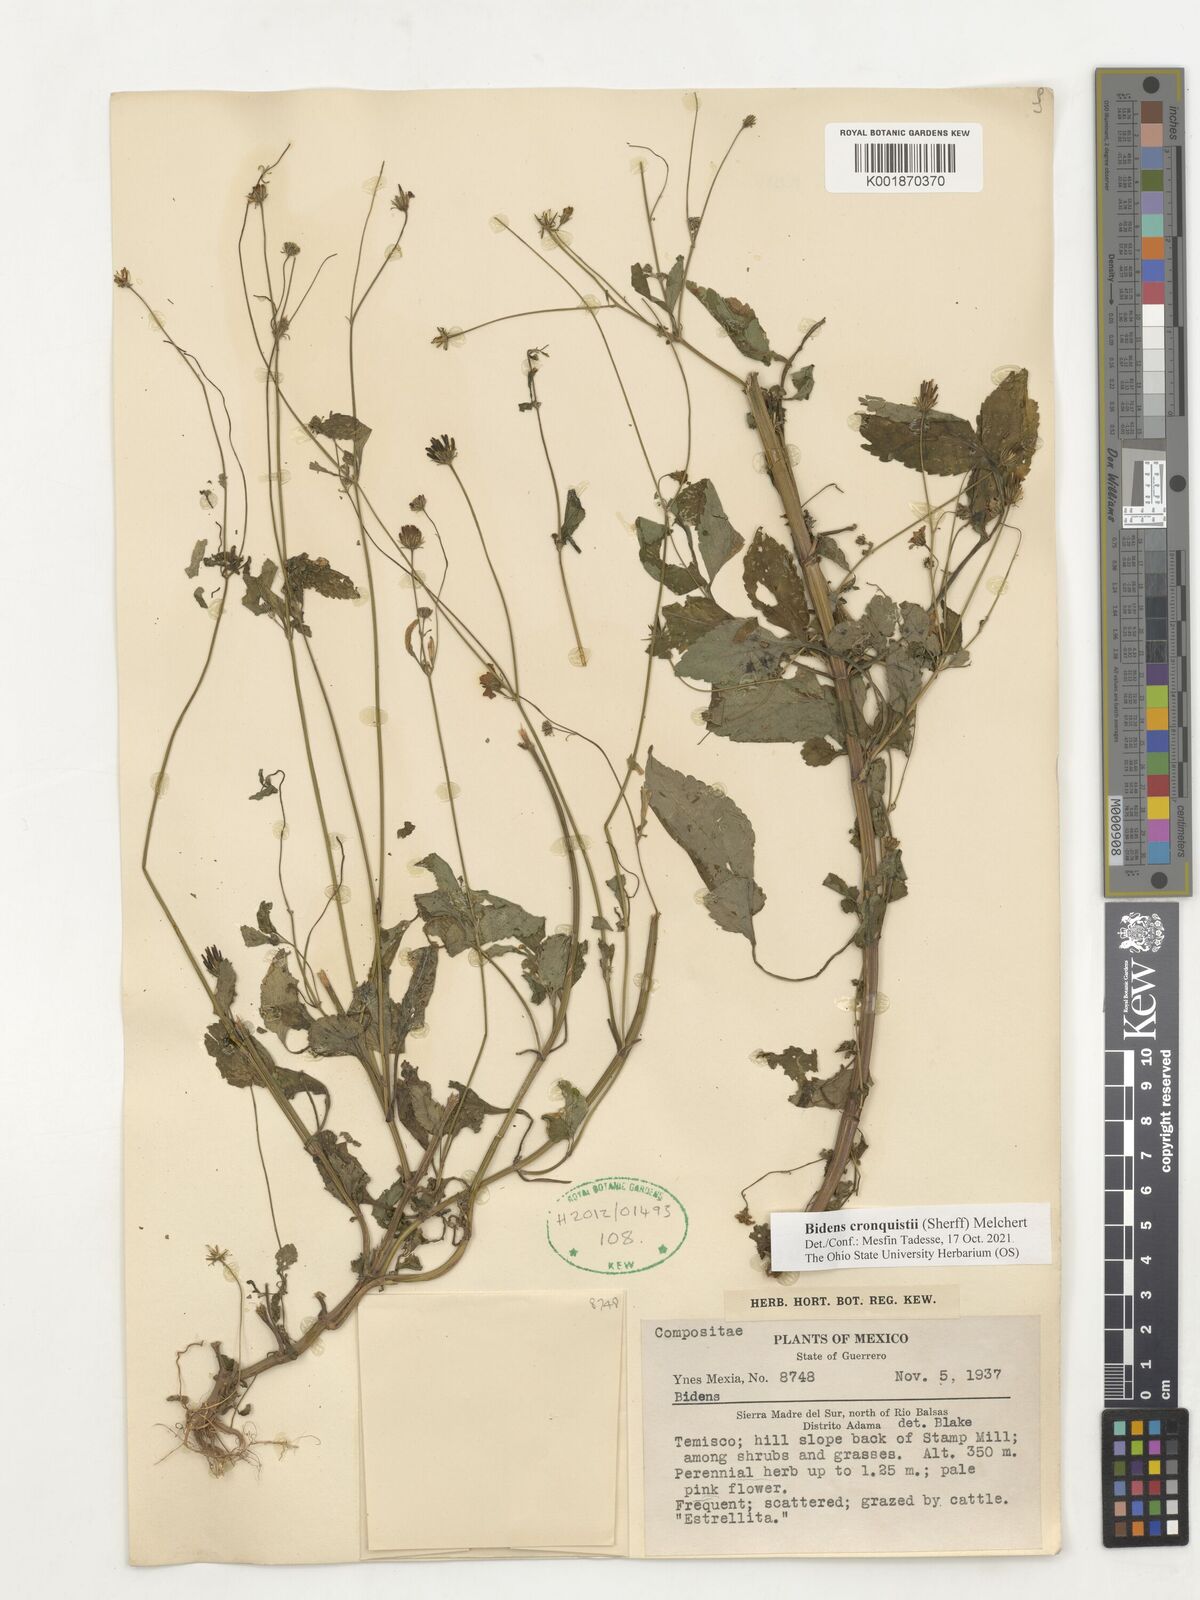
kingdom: Plantae
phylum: Tracheophyta
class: Magnoliopsida
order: Asterales
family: Asteraceae
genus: Bidens
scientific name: Bidens cronquistii
